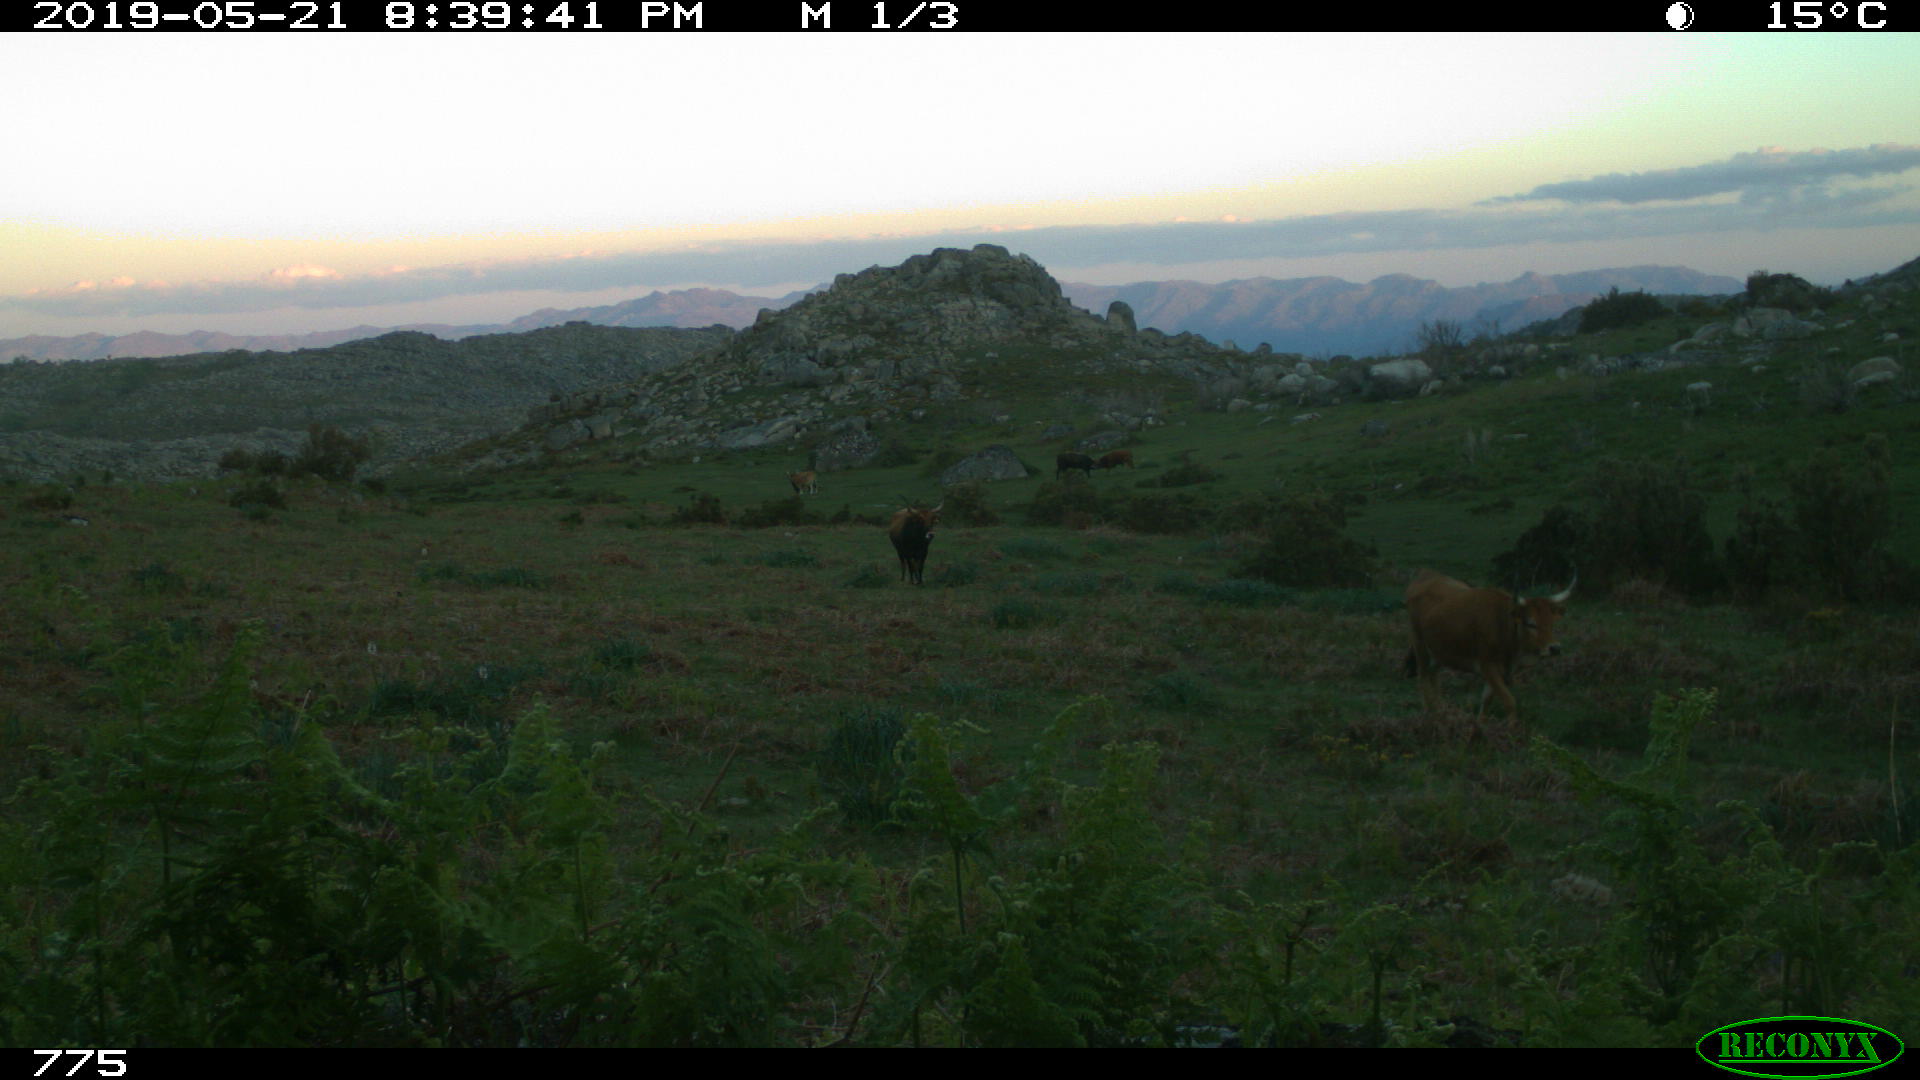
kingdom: Animalia
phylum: Chordata
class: Mammalia
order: Artiodactyla
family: Bovidae
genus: Bos
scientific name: Bos taurus
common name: Domesticated cattle
